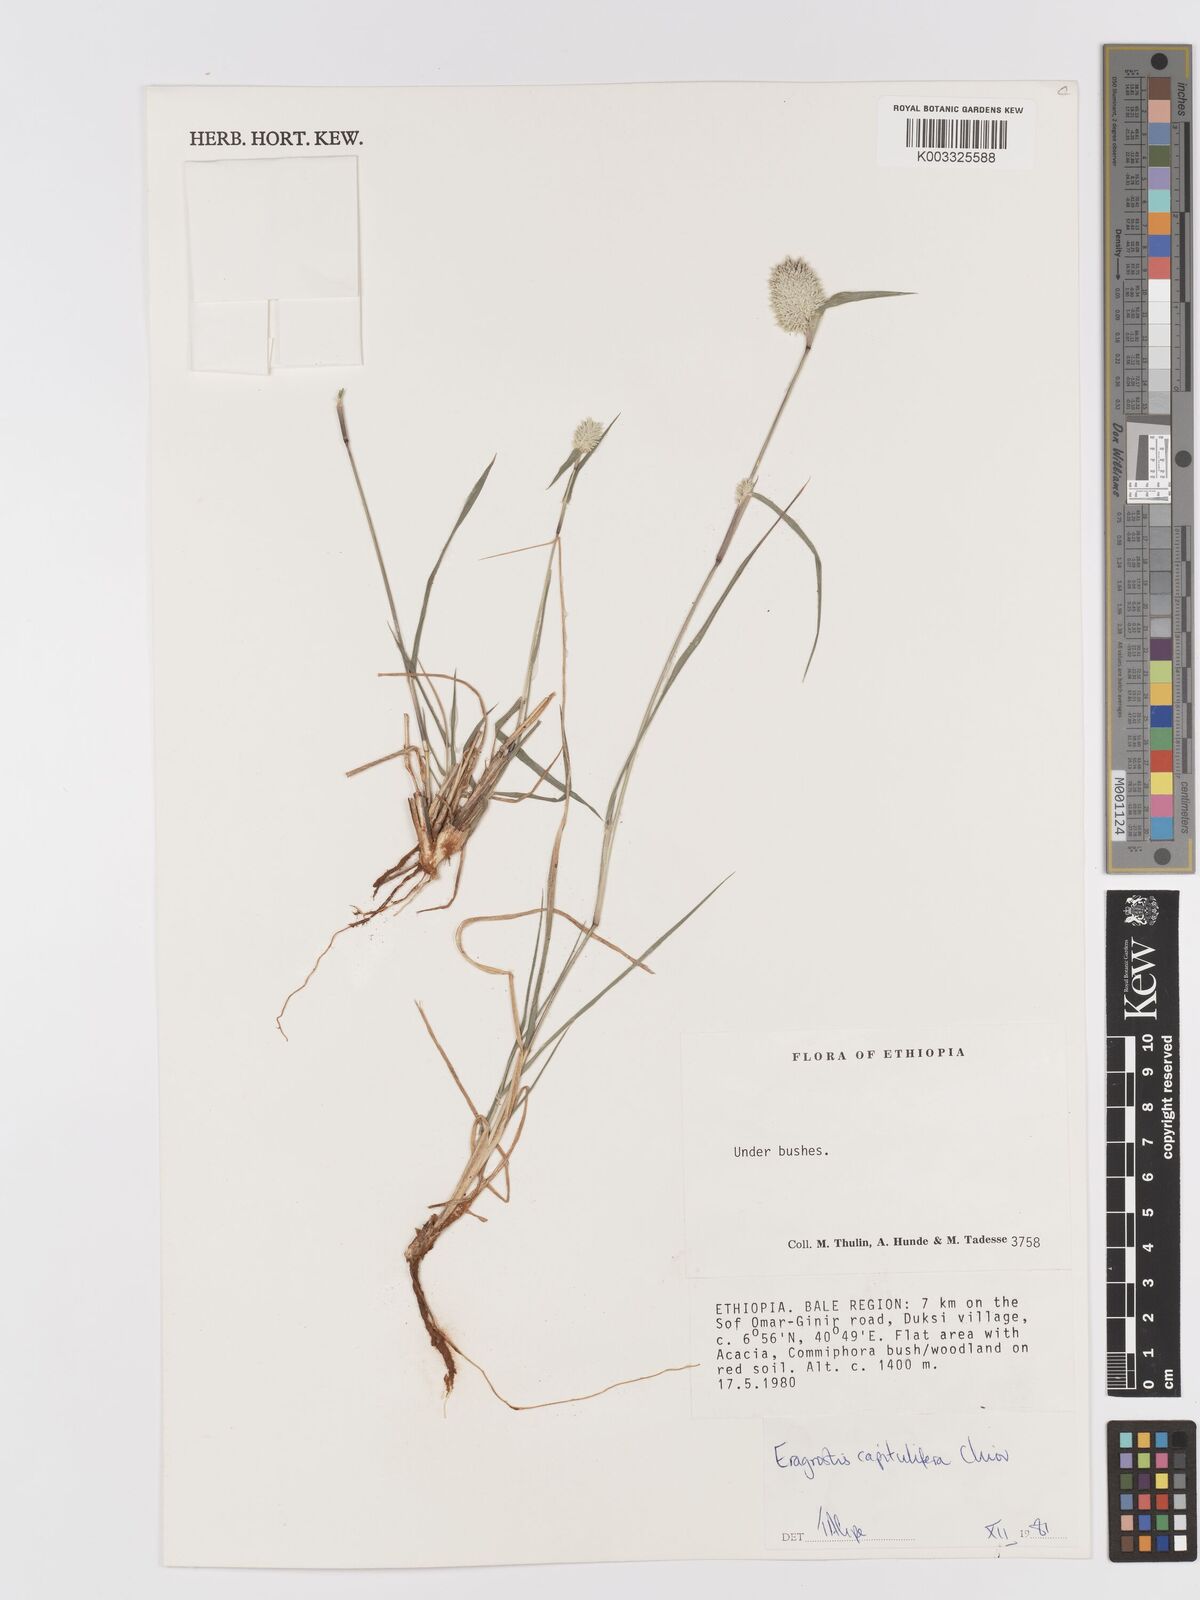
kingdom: Plantae
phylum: Tracheophyta
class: Liliopsida
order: Poales
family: Poaceae
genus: Eragrostis
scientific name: Eragrostis capitulifera
